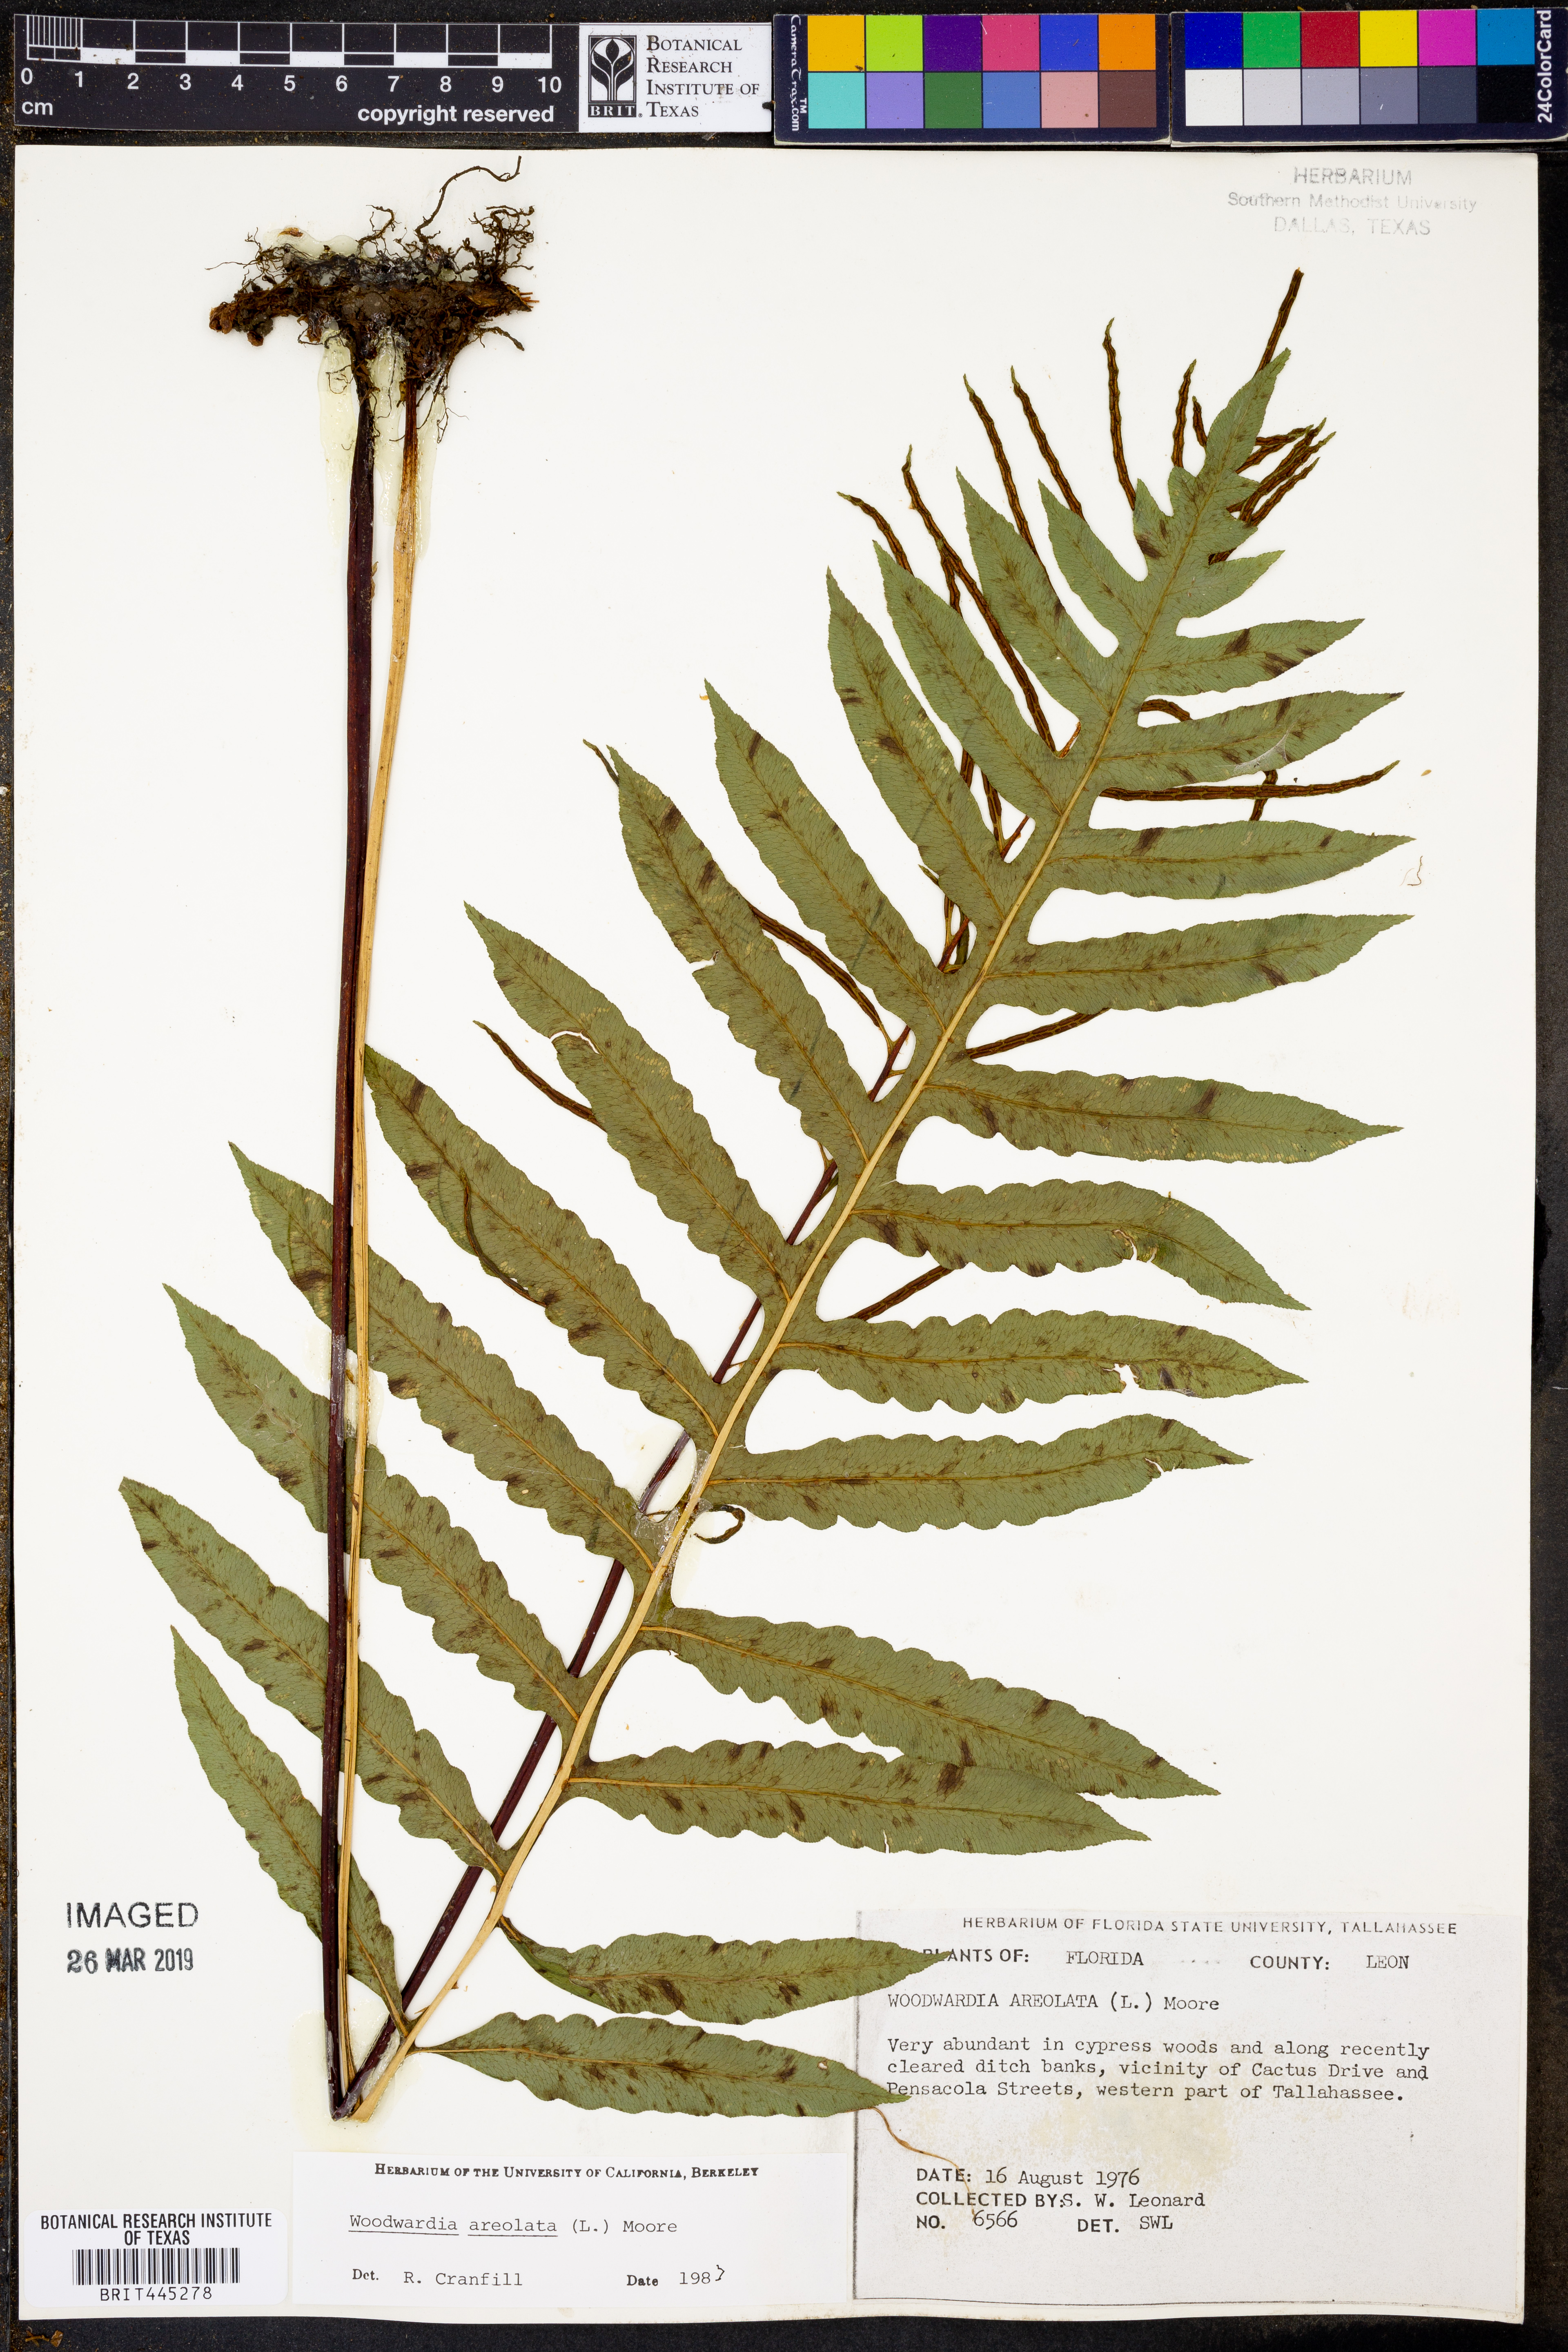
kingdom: Plantae
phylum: Tracheophyta
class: Polypodiopsida
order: Polypodiales
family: Blechnaceae
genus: Lorinseria
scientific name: Lorinseria areolata
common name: Dwarf chain fern
